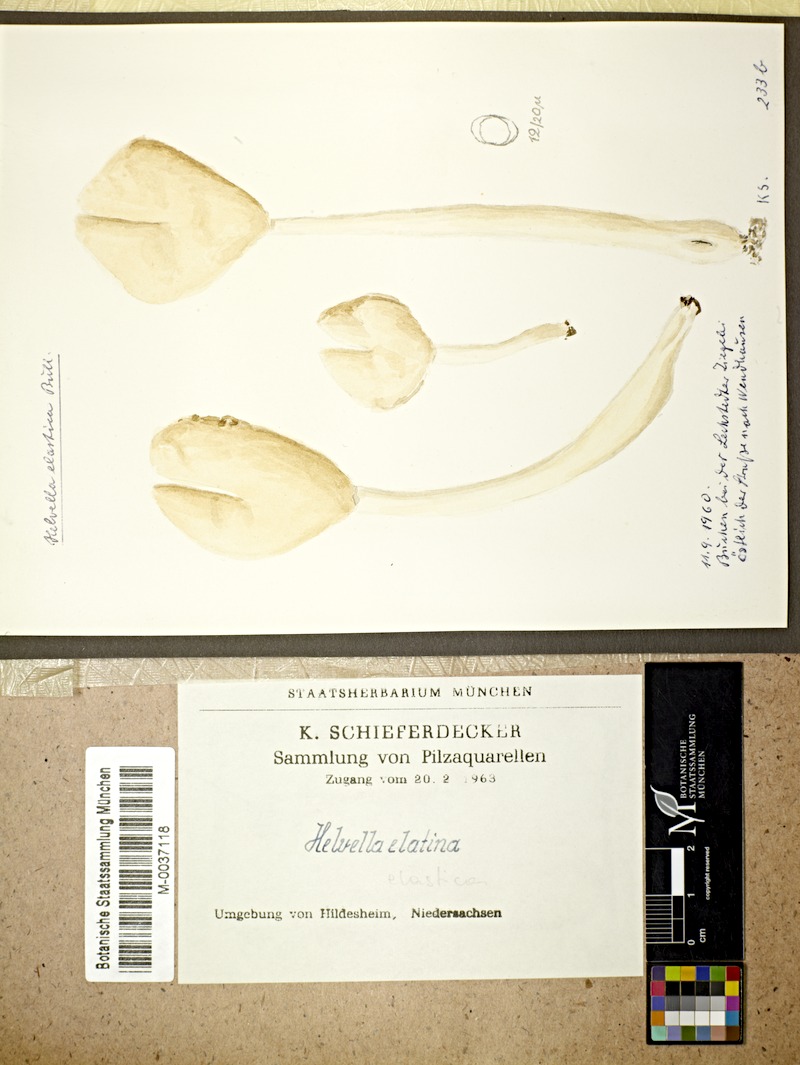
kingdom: Fungi
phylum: Ascomycota
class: Pezizomycetes
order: Pezizales
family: Helvellaceae
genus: Helvella
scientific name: Helvella elastica
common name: Elastic saddle
